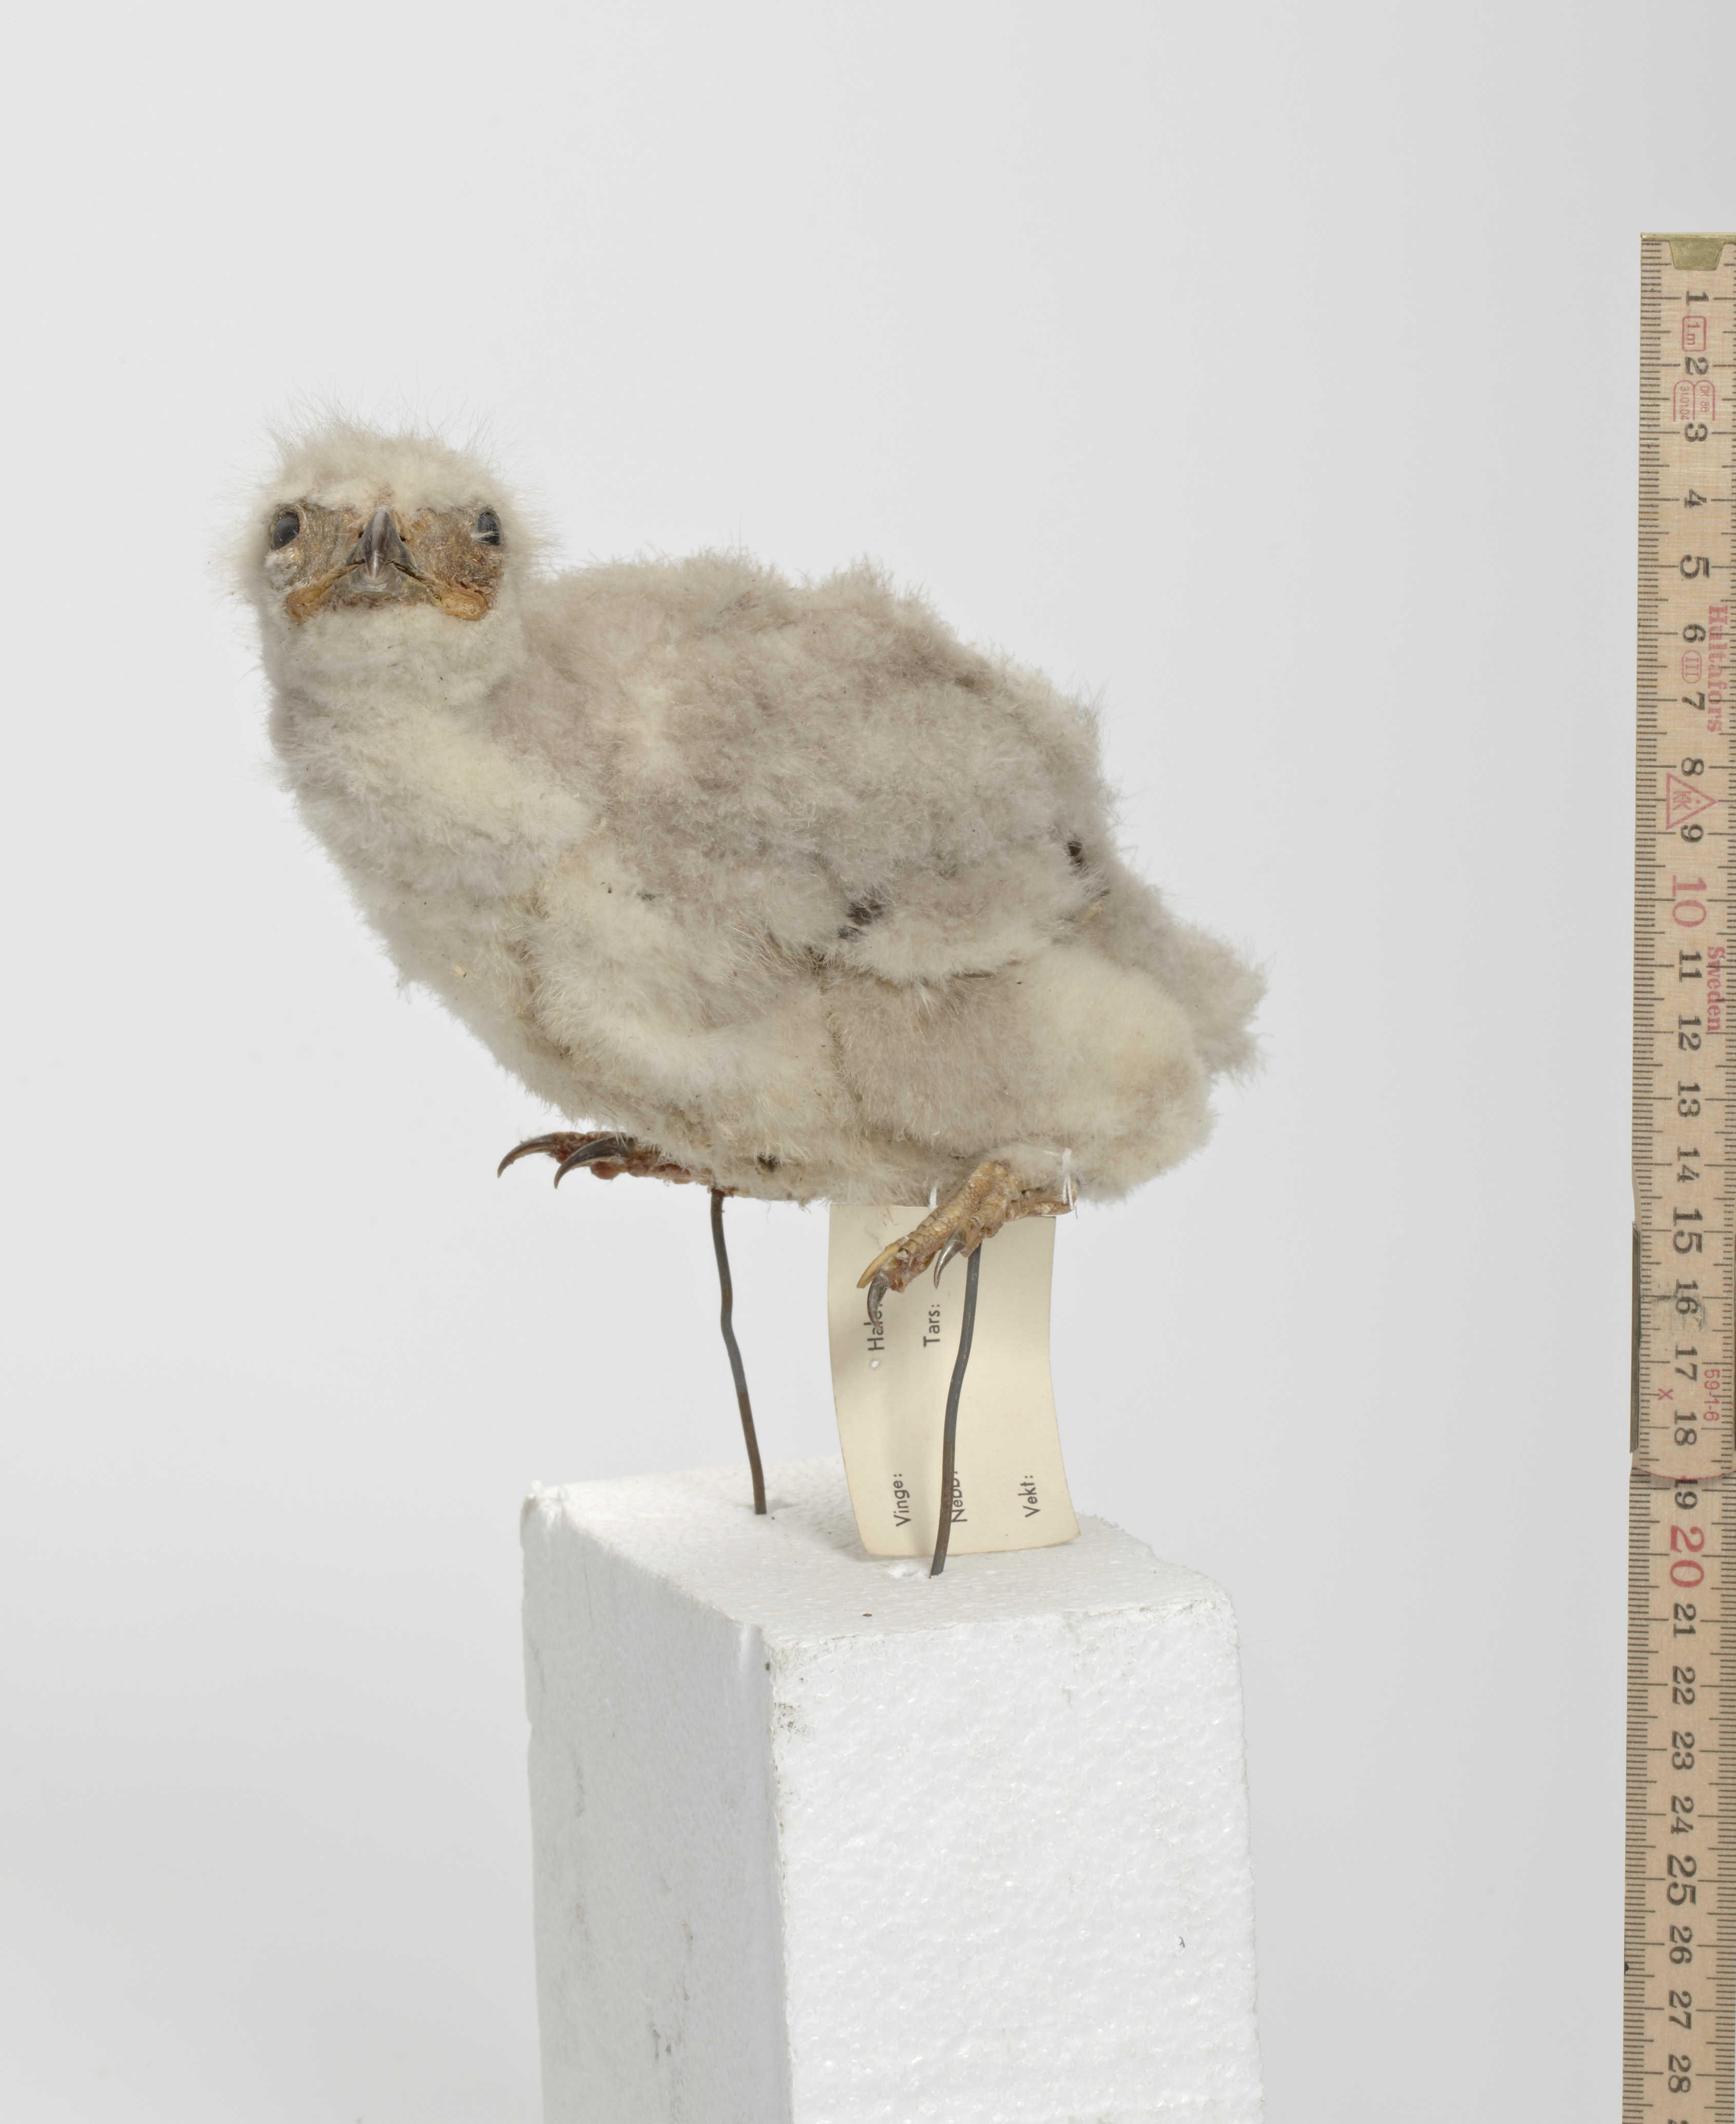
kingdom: Animalia
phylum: Chordata
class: Aves
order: Accipitriformes
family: Accipitridae
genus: Buteo
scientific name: Buteo lagopus
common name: Rough-legged buzzard
